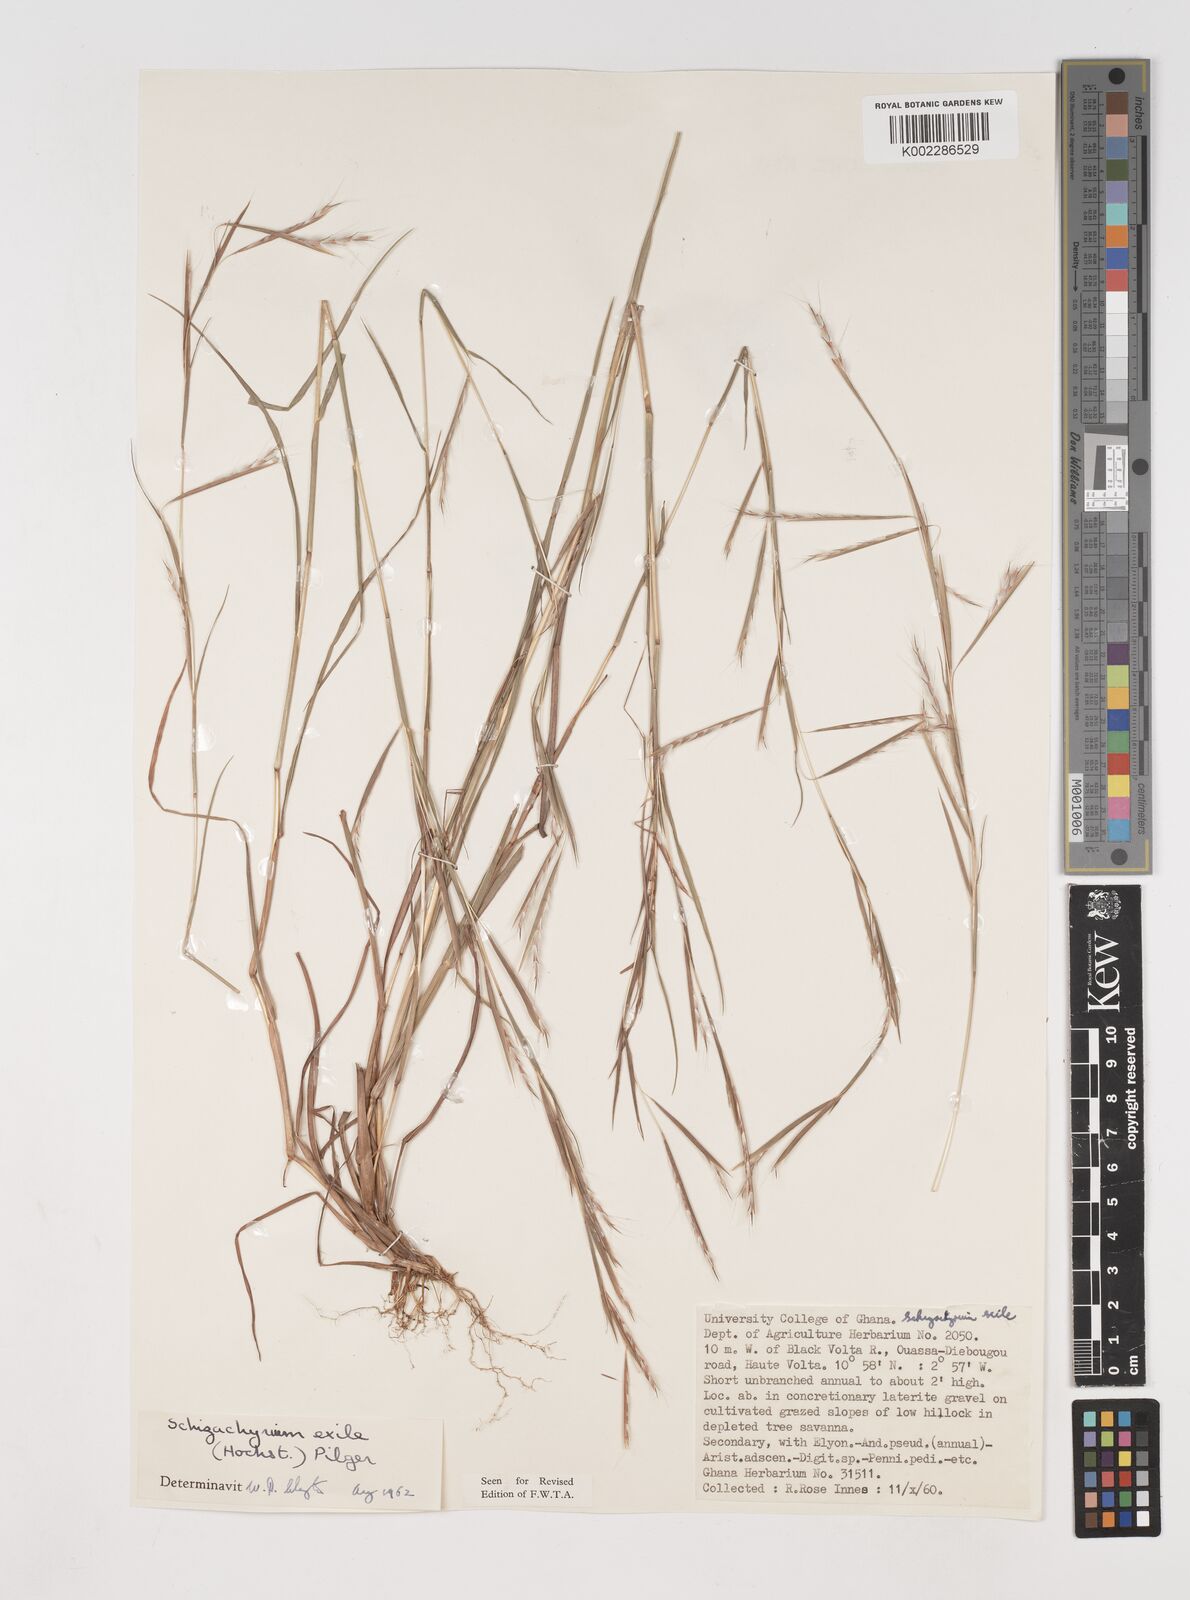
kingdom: Plantae
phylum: Tracheophyta
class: Liliopsida
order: Poales
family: Poaceae
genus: Schizachyrium
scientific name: Schizachyrium exile
